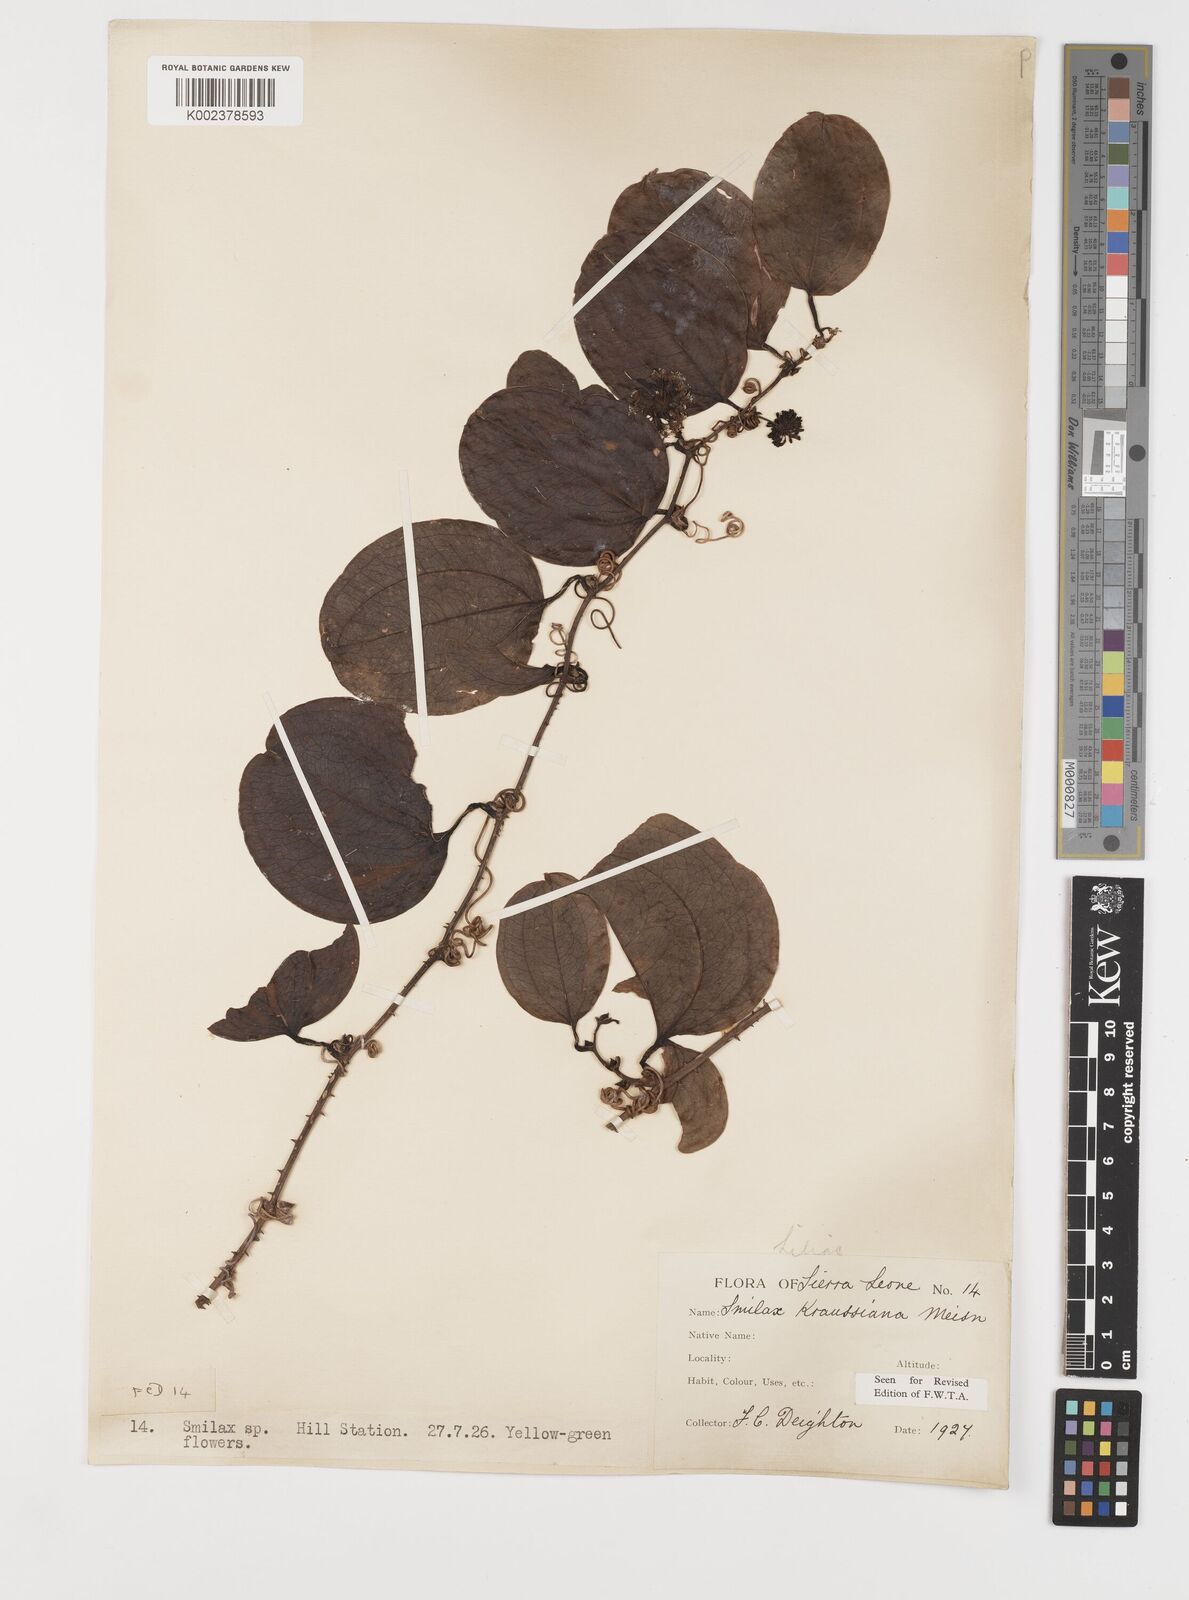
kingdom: Plantae
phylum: Tracheophyta
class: Liliopsida
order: Liliales
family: Smilacaceae
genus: Smilax
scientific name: Smilax anceps
